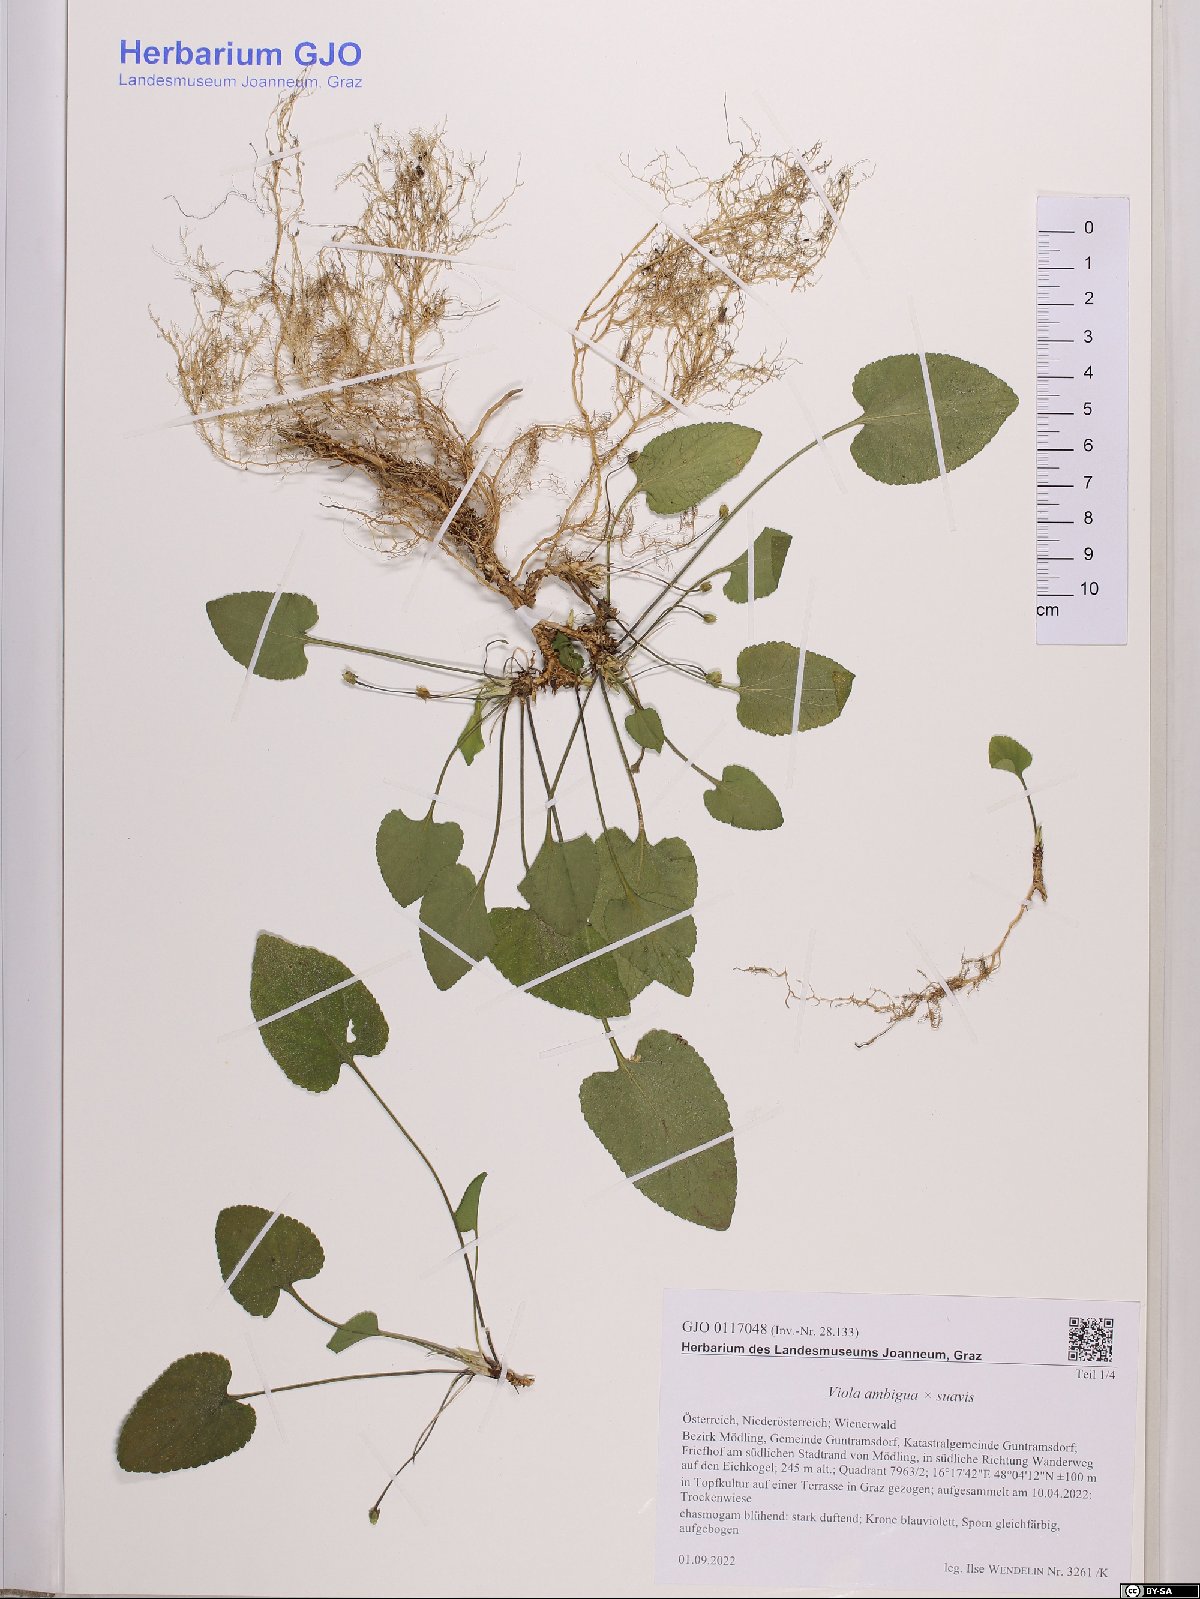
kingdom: Plantae
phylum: Tracheophyta
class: Magnoliopsida
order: Malpighiales
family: Violaceae
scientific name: Violaceae
